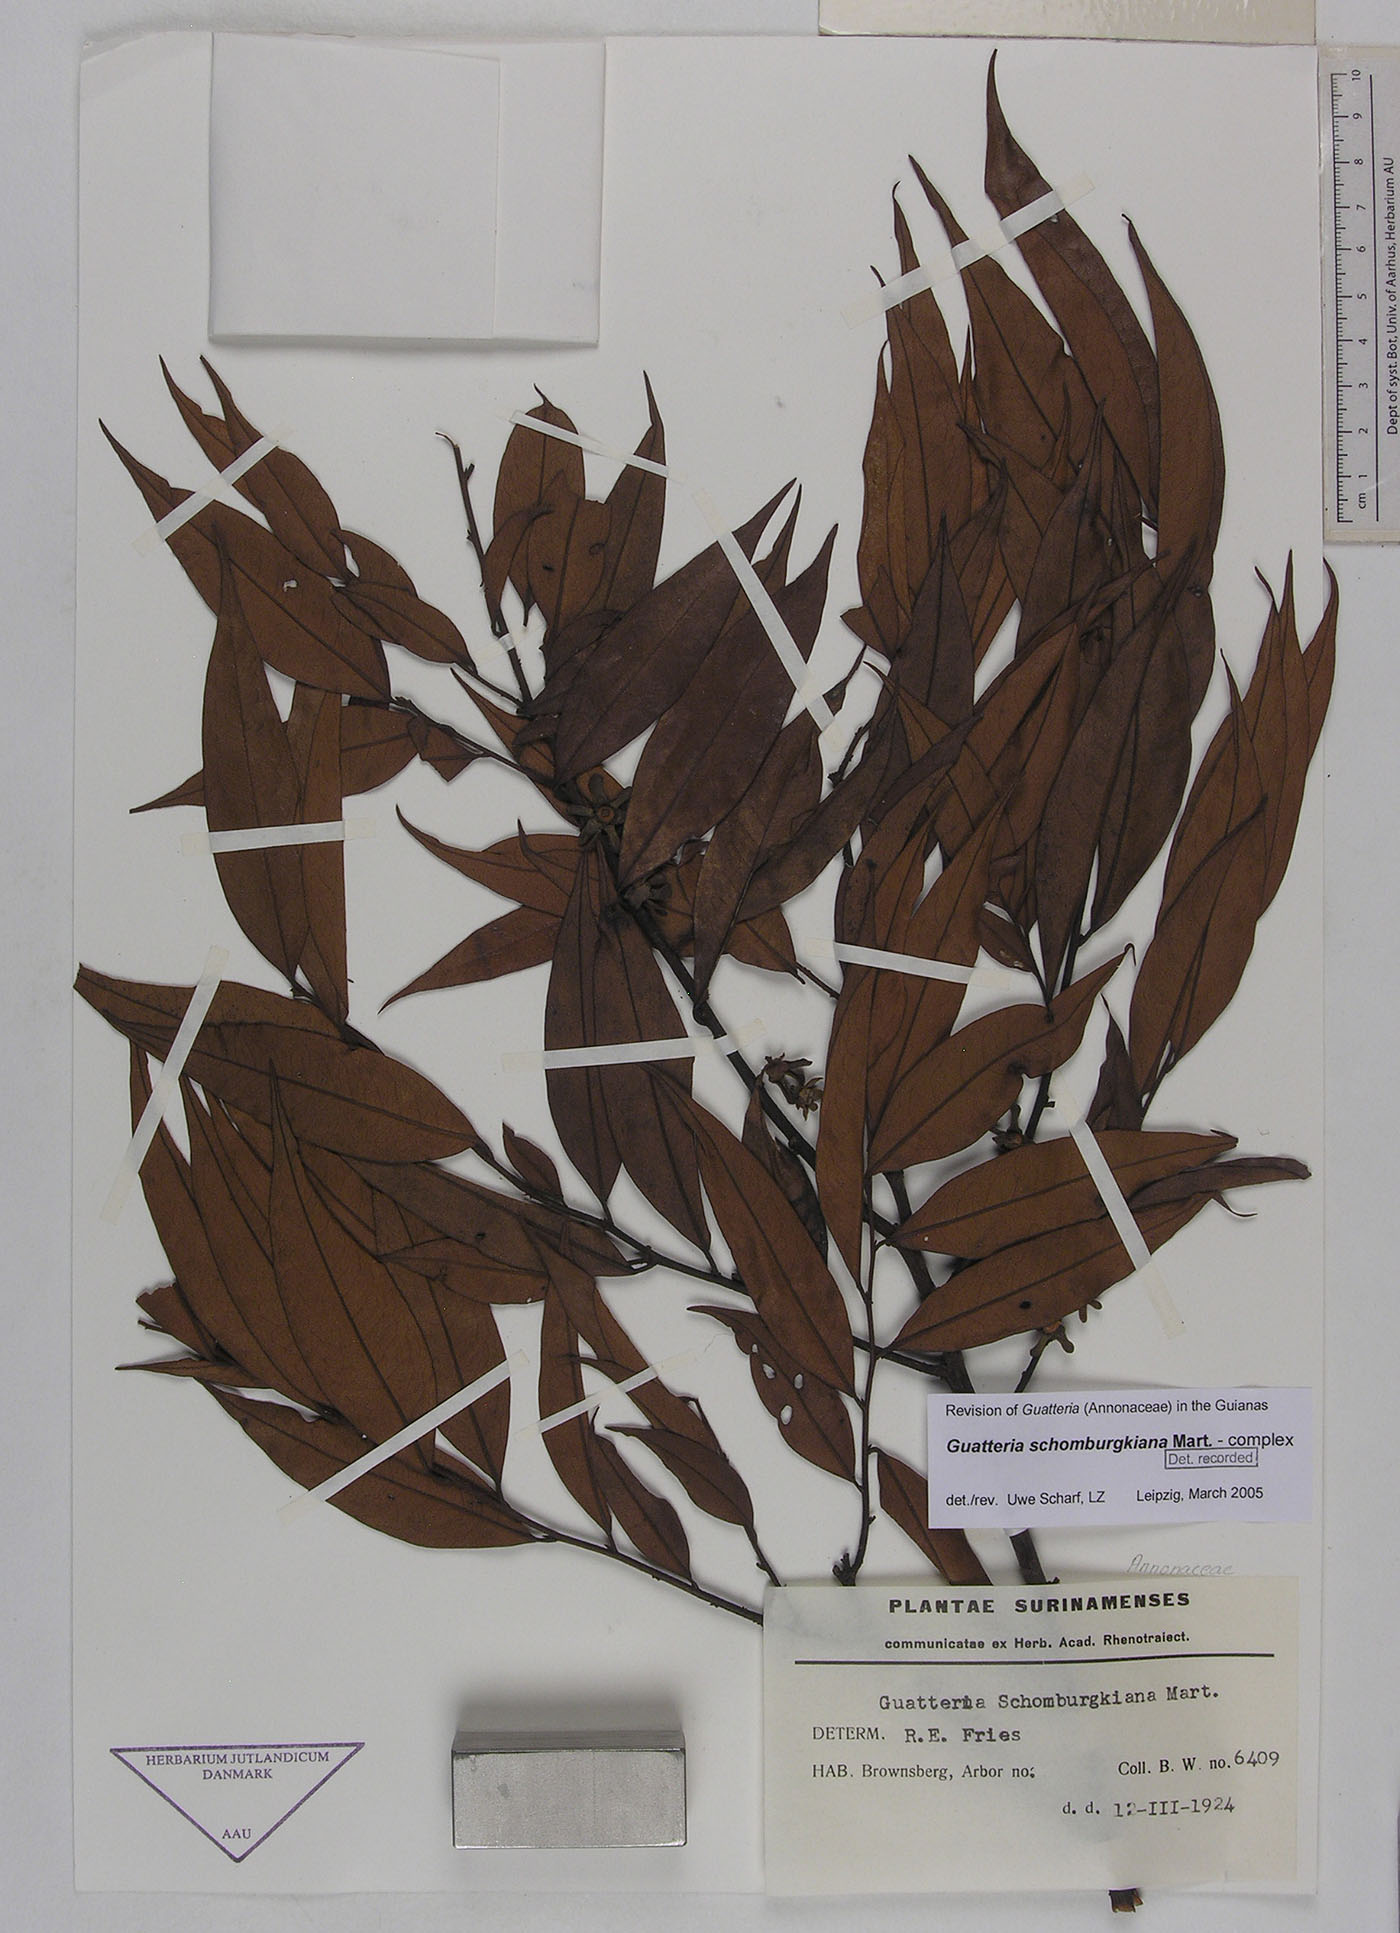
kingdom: Plantae
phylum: Tracheophyta
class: Magnoliopsida
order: Magnoliales
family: Annonaceae
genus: Guatteria
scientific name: Guatteria schomburgkiana
